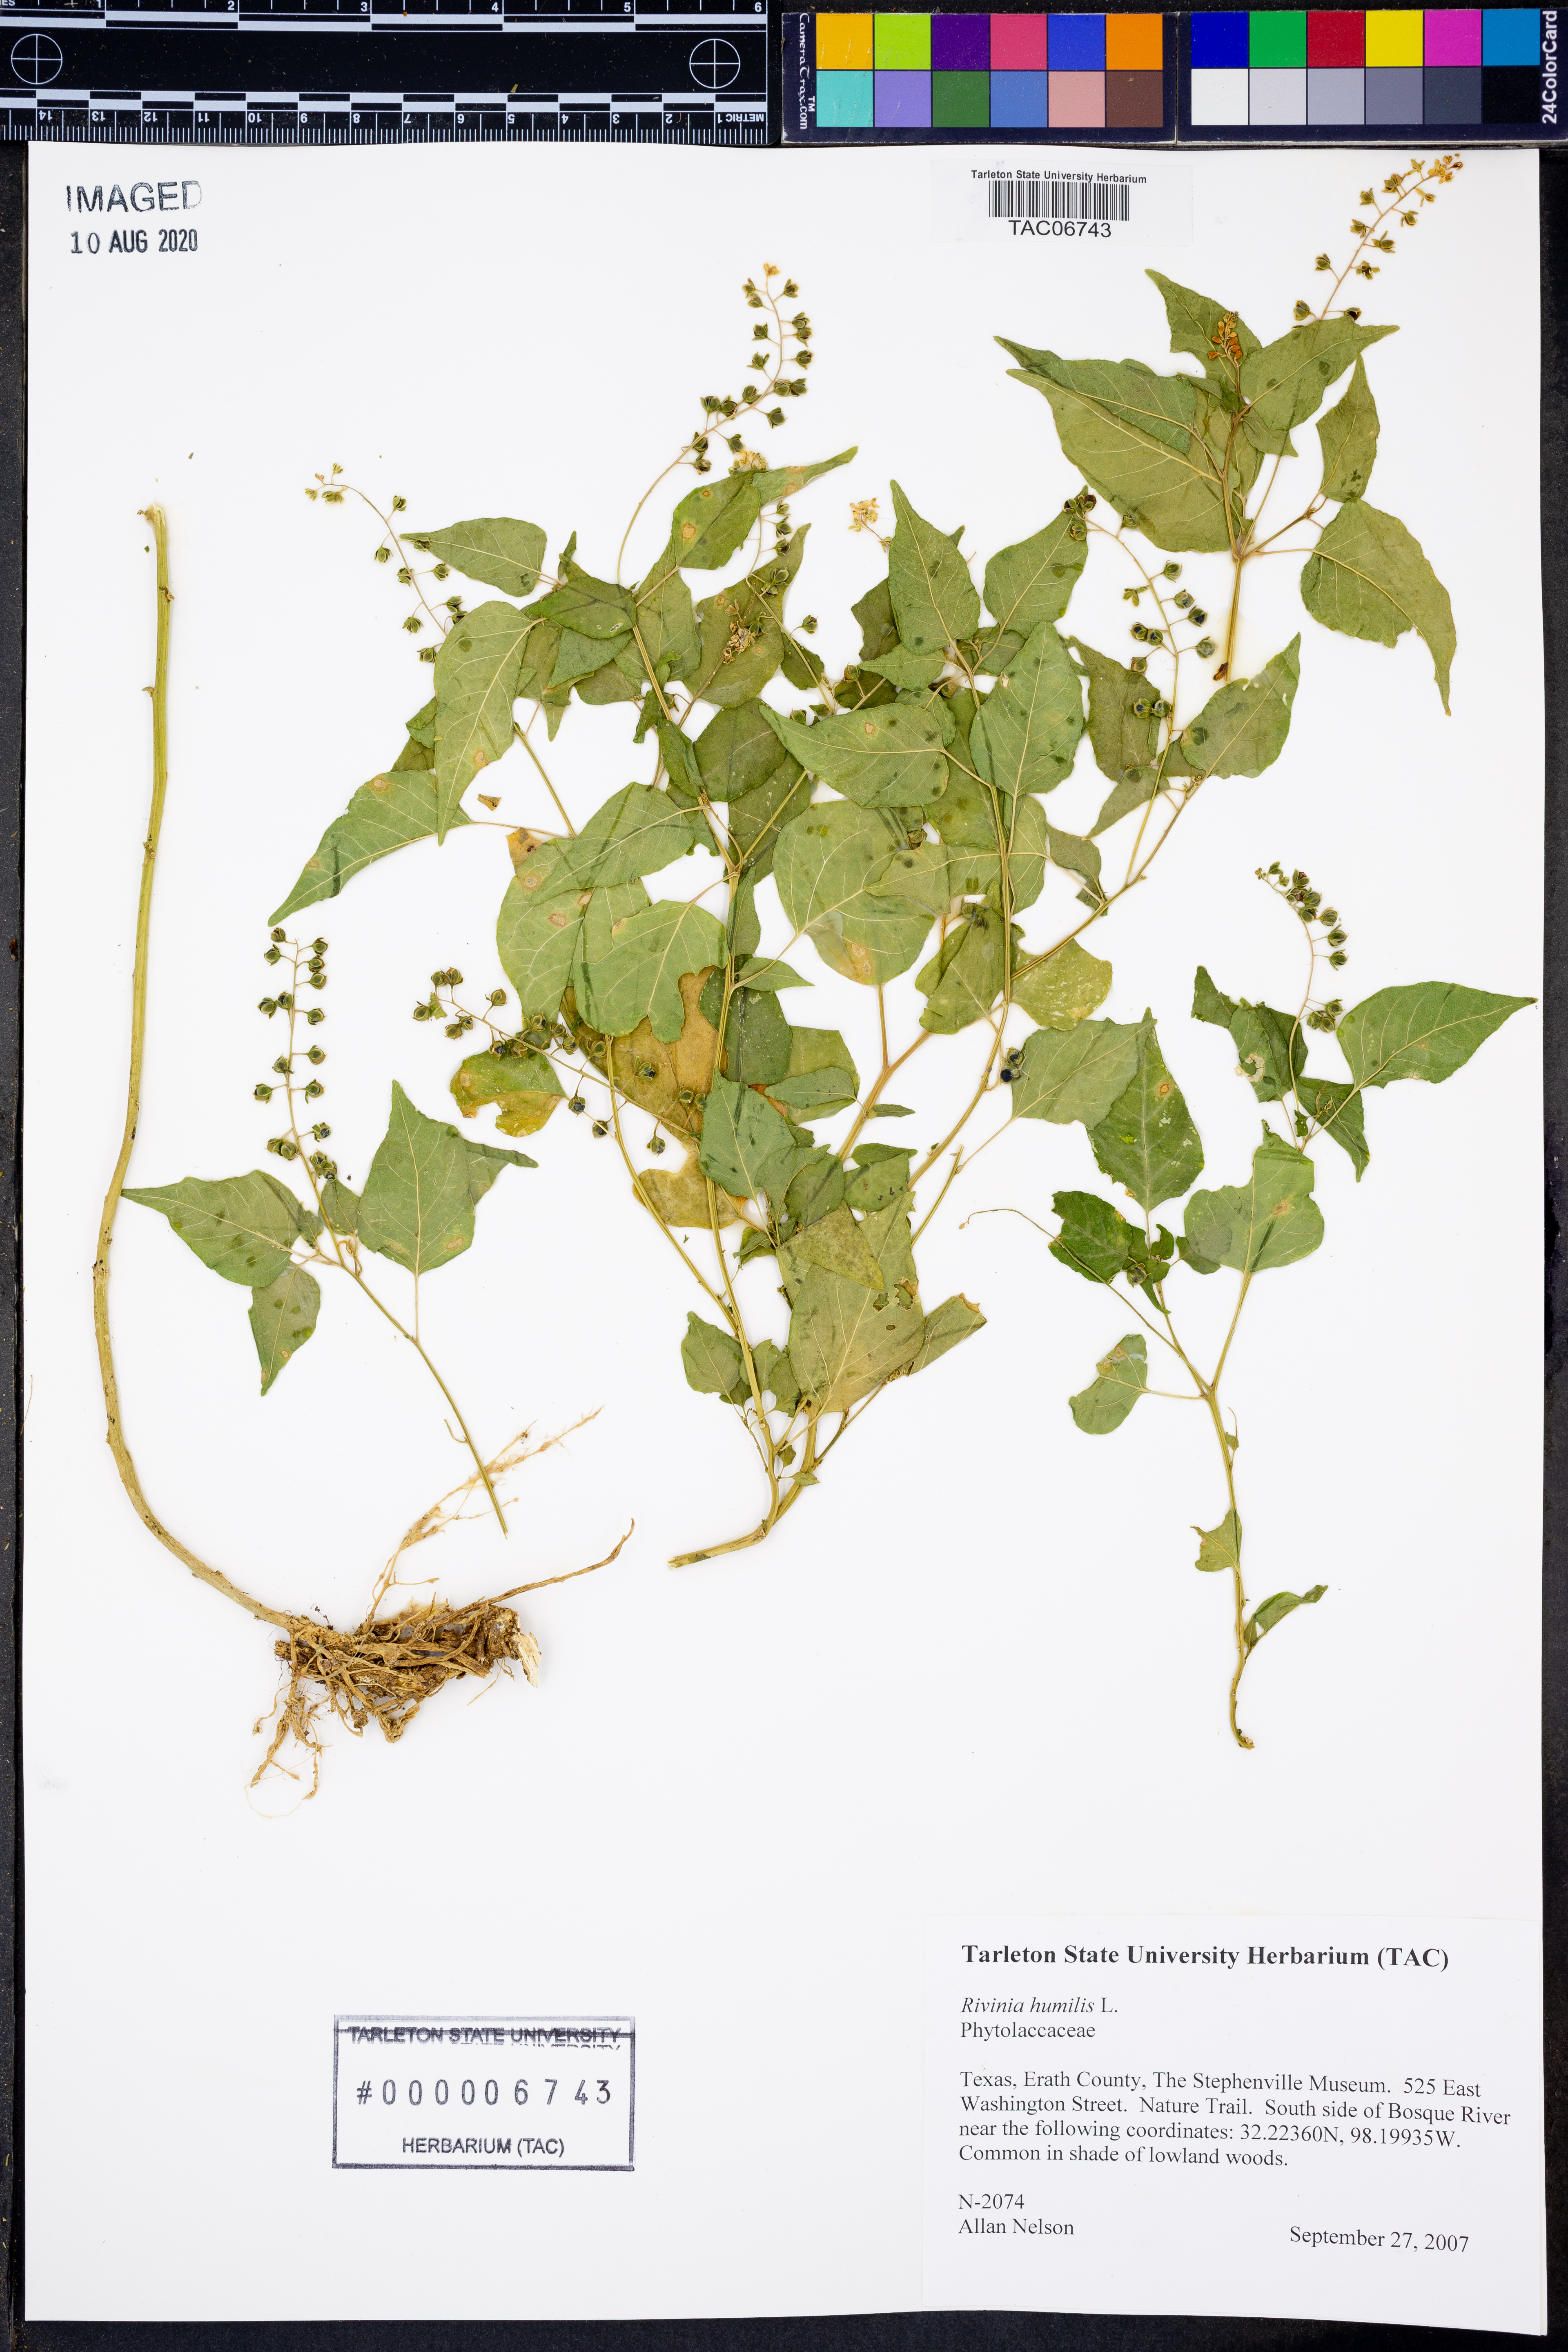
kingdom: Plantae
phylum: Tracheophyta
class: Magnoliopsida
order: Caryophyllales
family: Phytolaccaceae
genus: Rivina
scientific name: Rivina humilis
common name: Rougeplant
